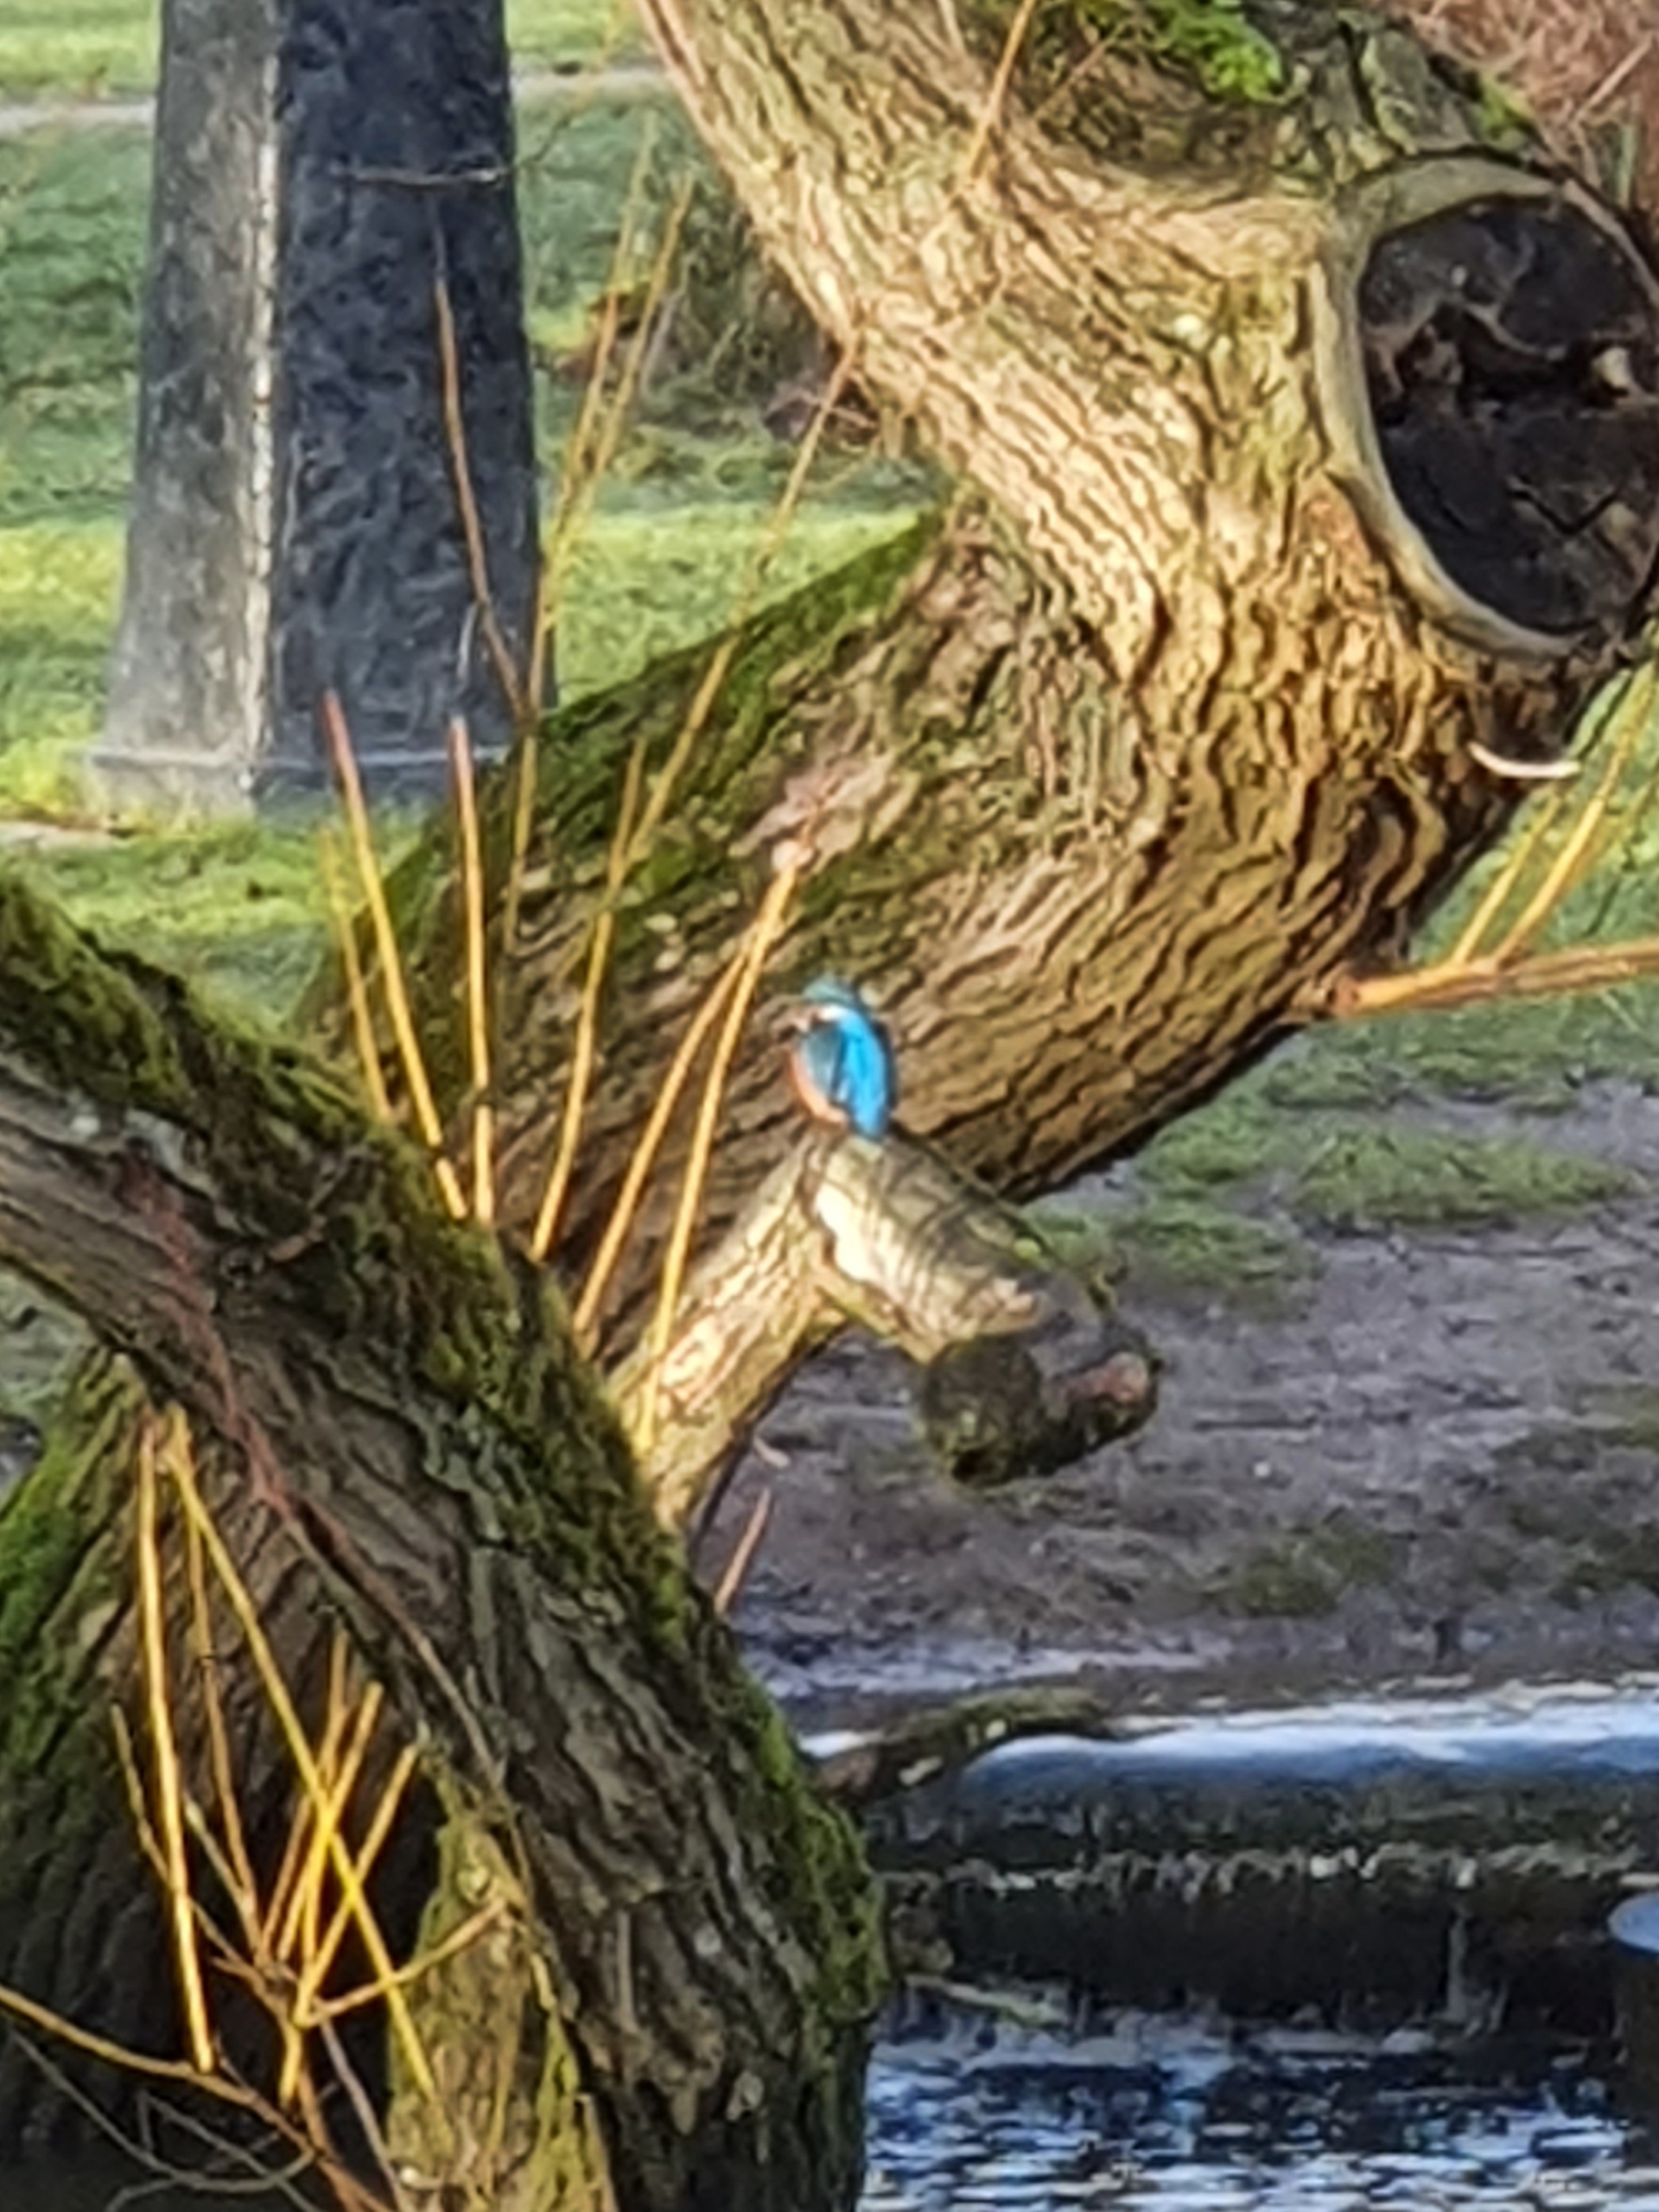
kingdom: Animalia
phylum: Chordata
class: Aves
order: Coraciiformes
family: Alcedinidae
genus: Alcedo
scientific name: Alcedo atthis
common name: Isfugl
